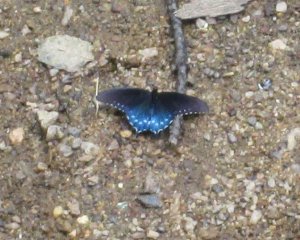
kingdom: Animalia
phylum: Arthropoda
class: Insecta
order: Lepidoptera
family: Papilionidae
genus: Battus
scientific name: Battus philenor
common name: Pipevine Swallowtail
